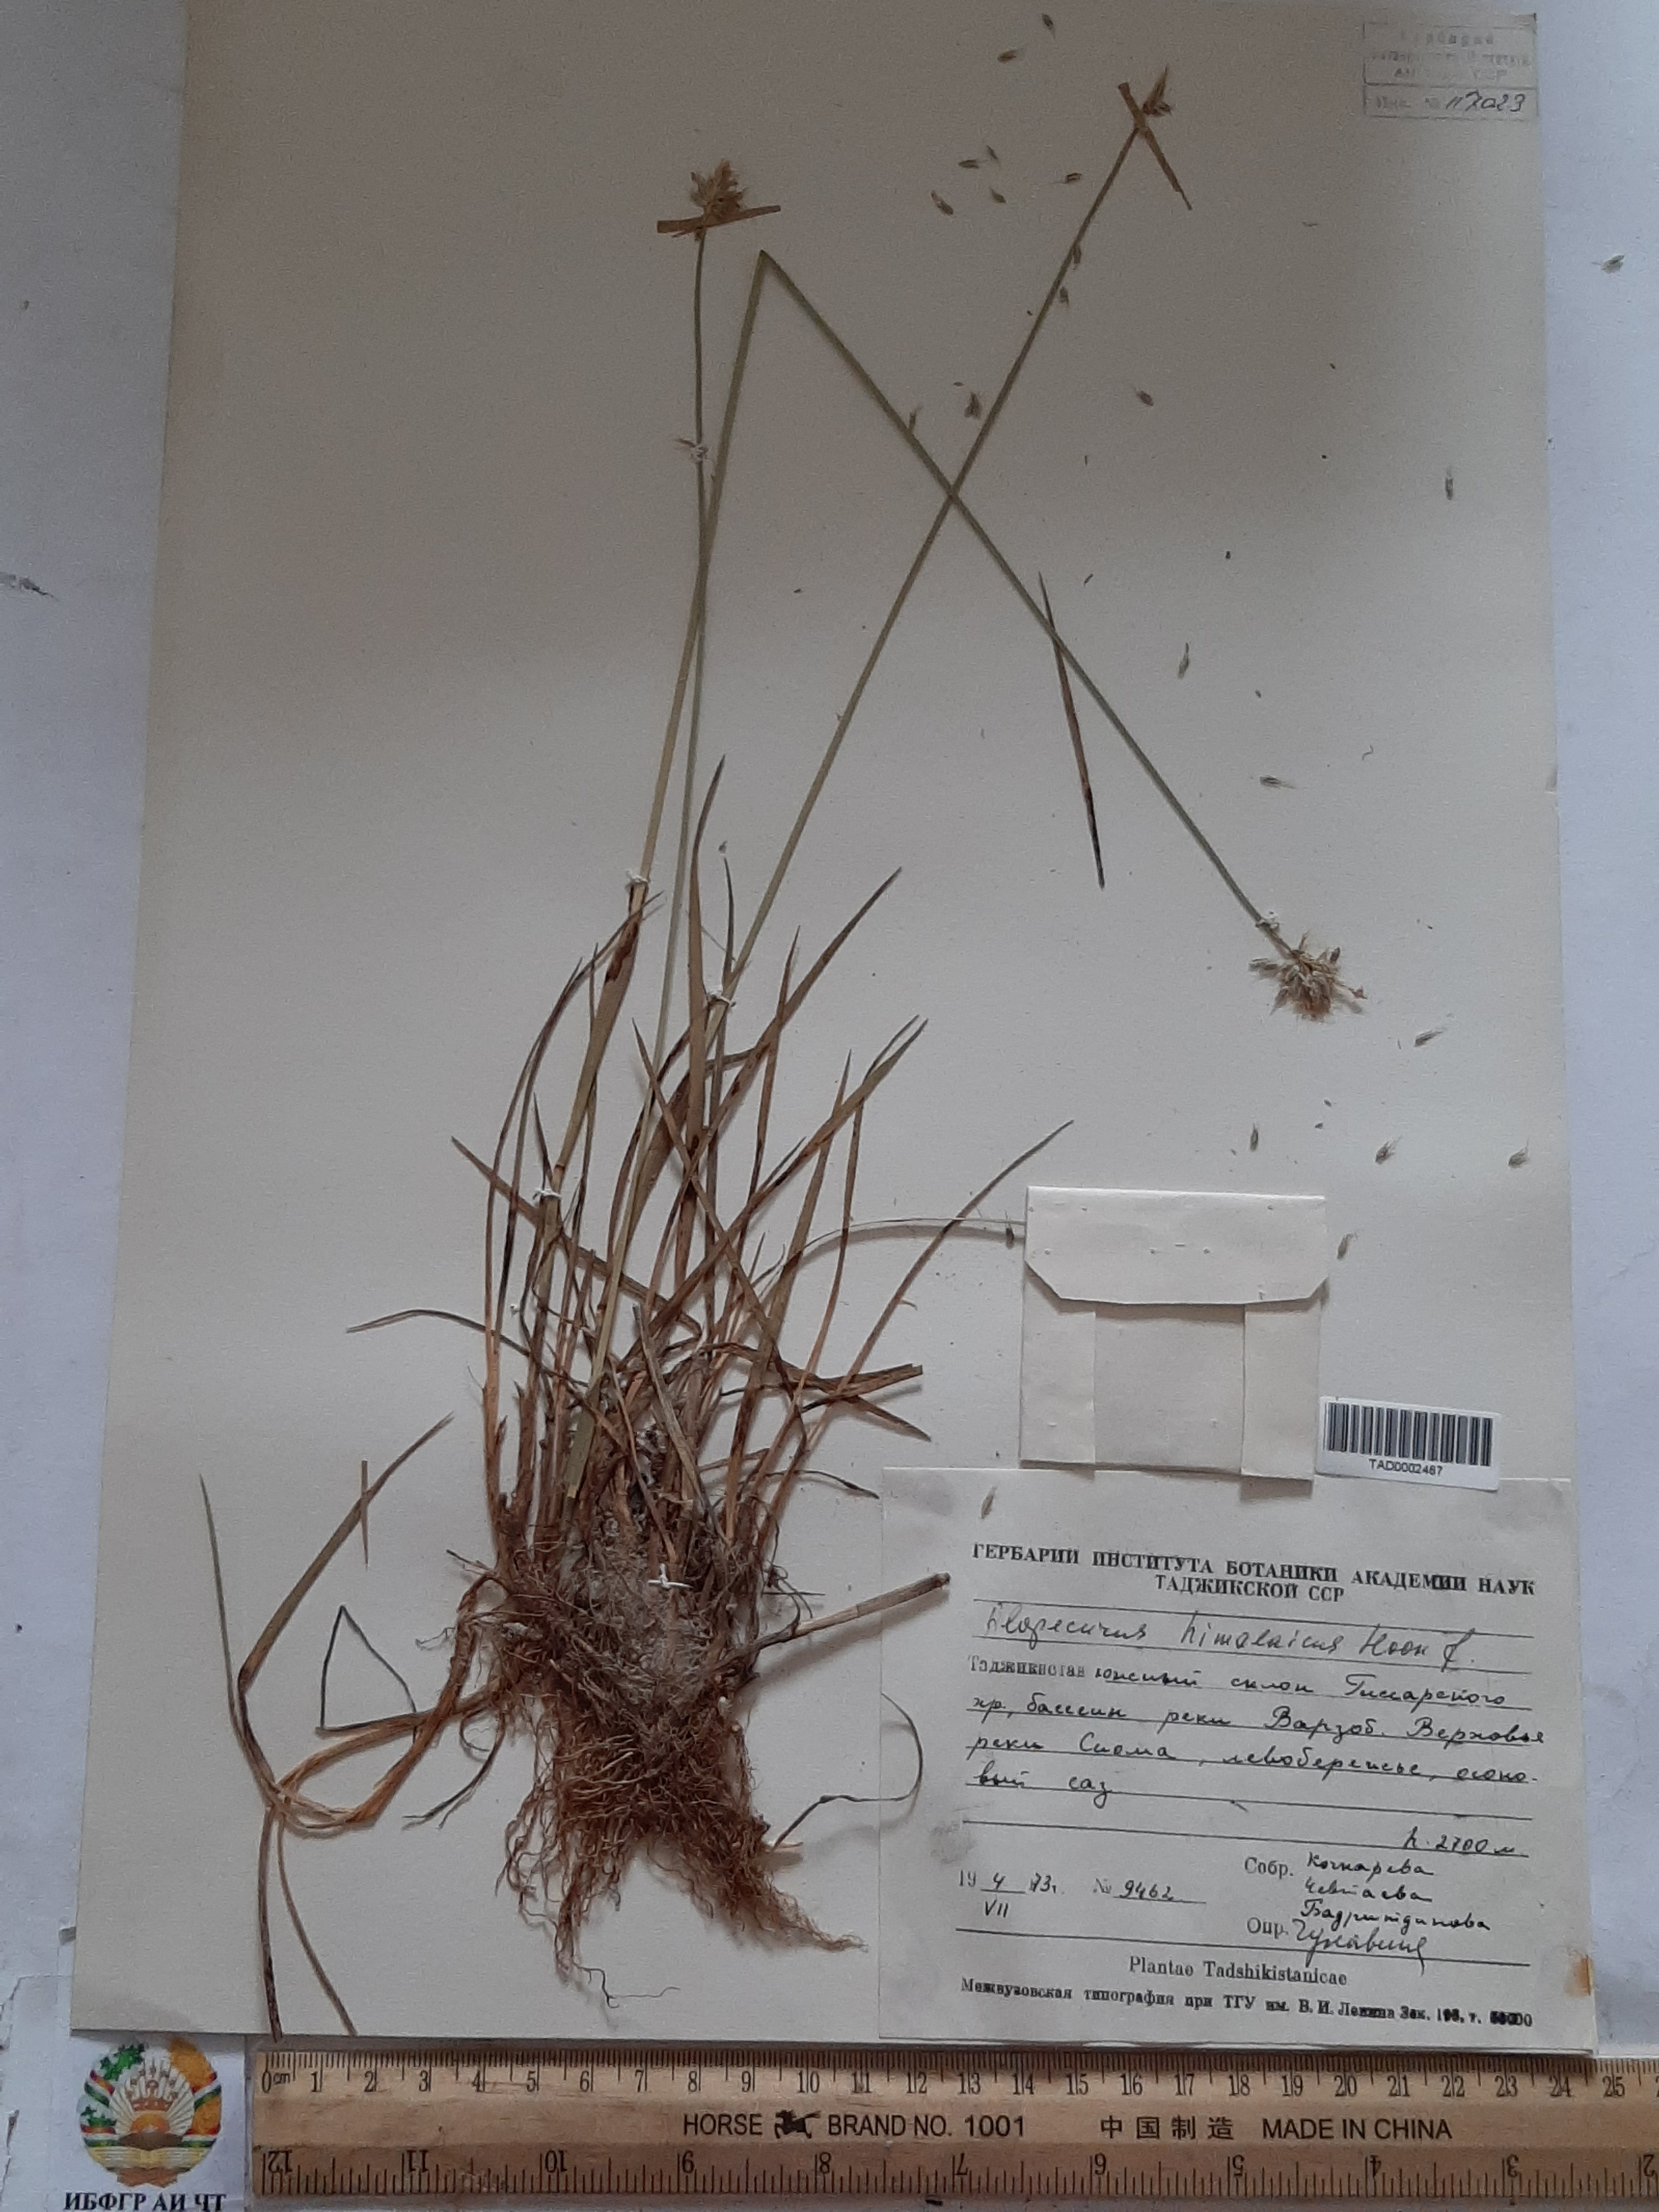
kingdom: Plantae
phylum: Tracheophyta
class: Liliopsida
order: Poales
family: Poaceae
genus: Alopecurus
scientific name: Alopecurus himalaicus
